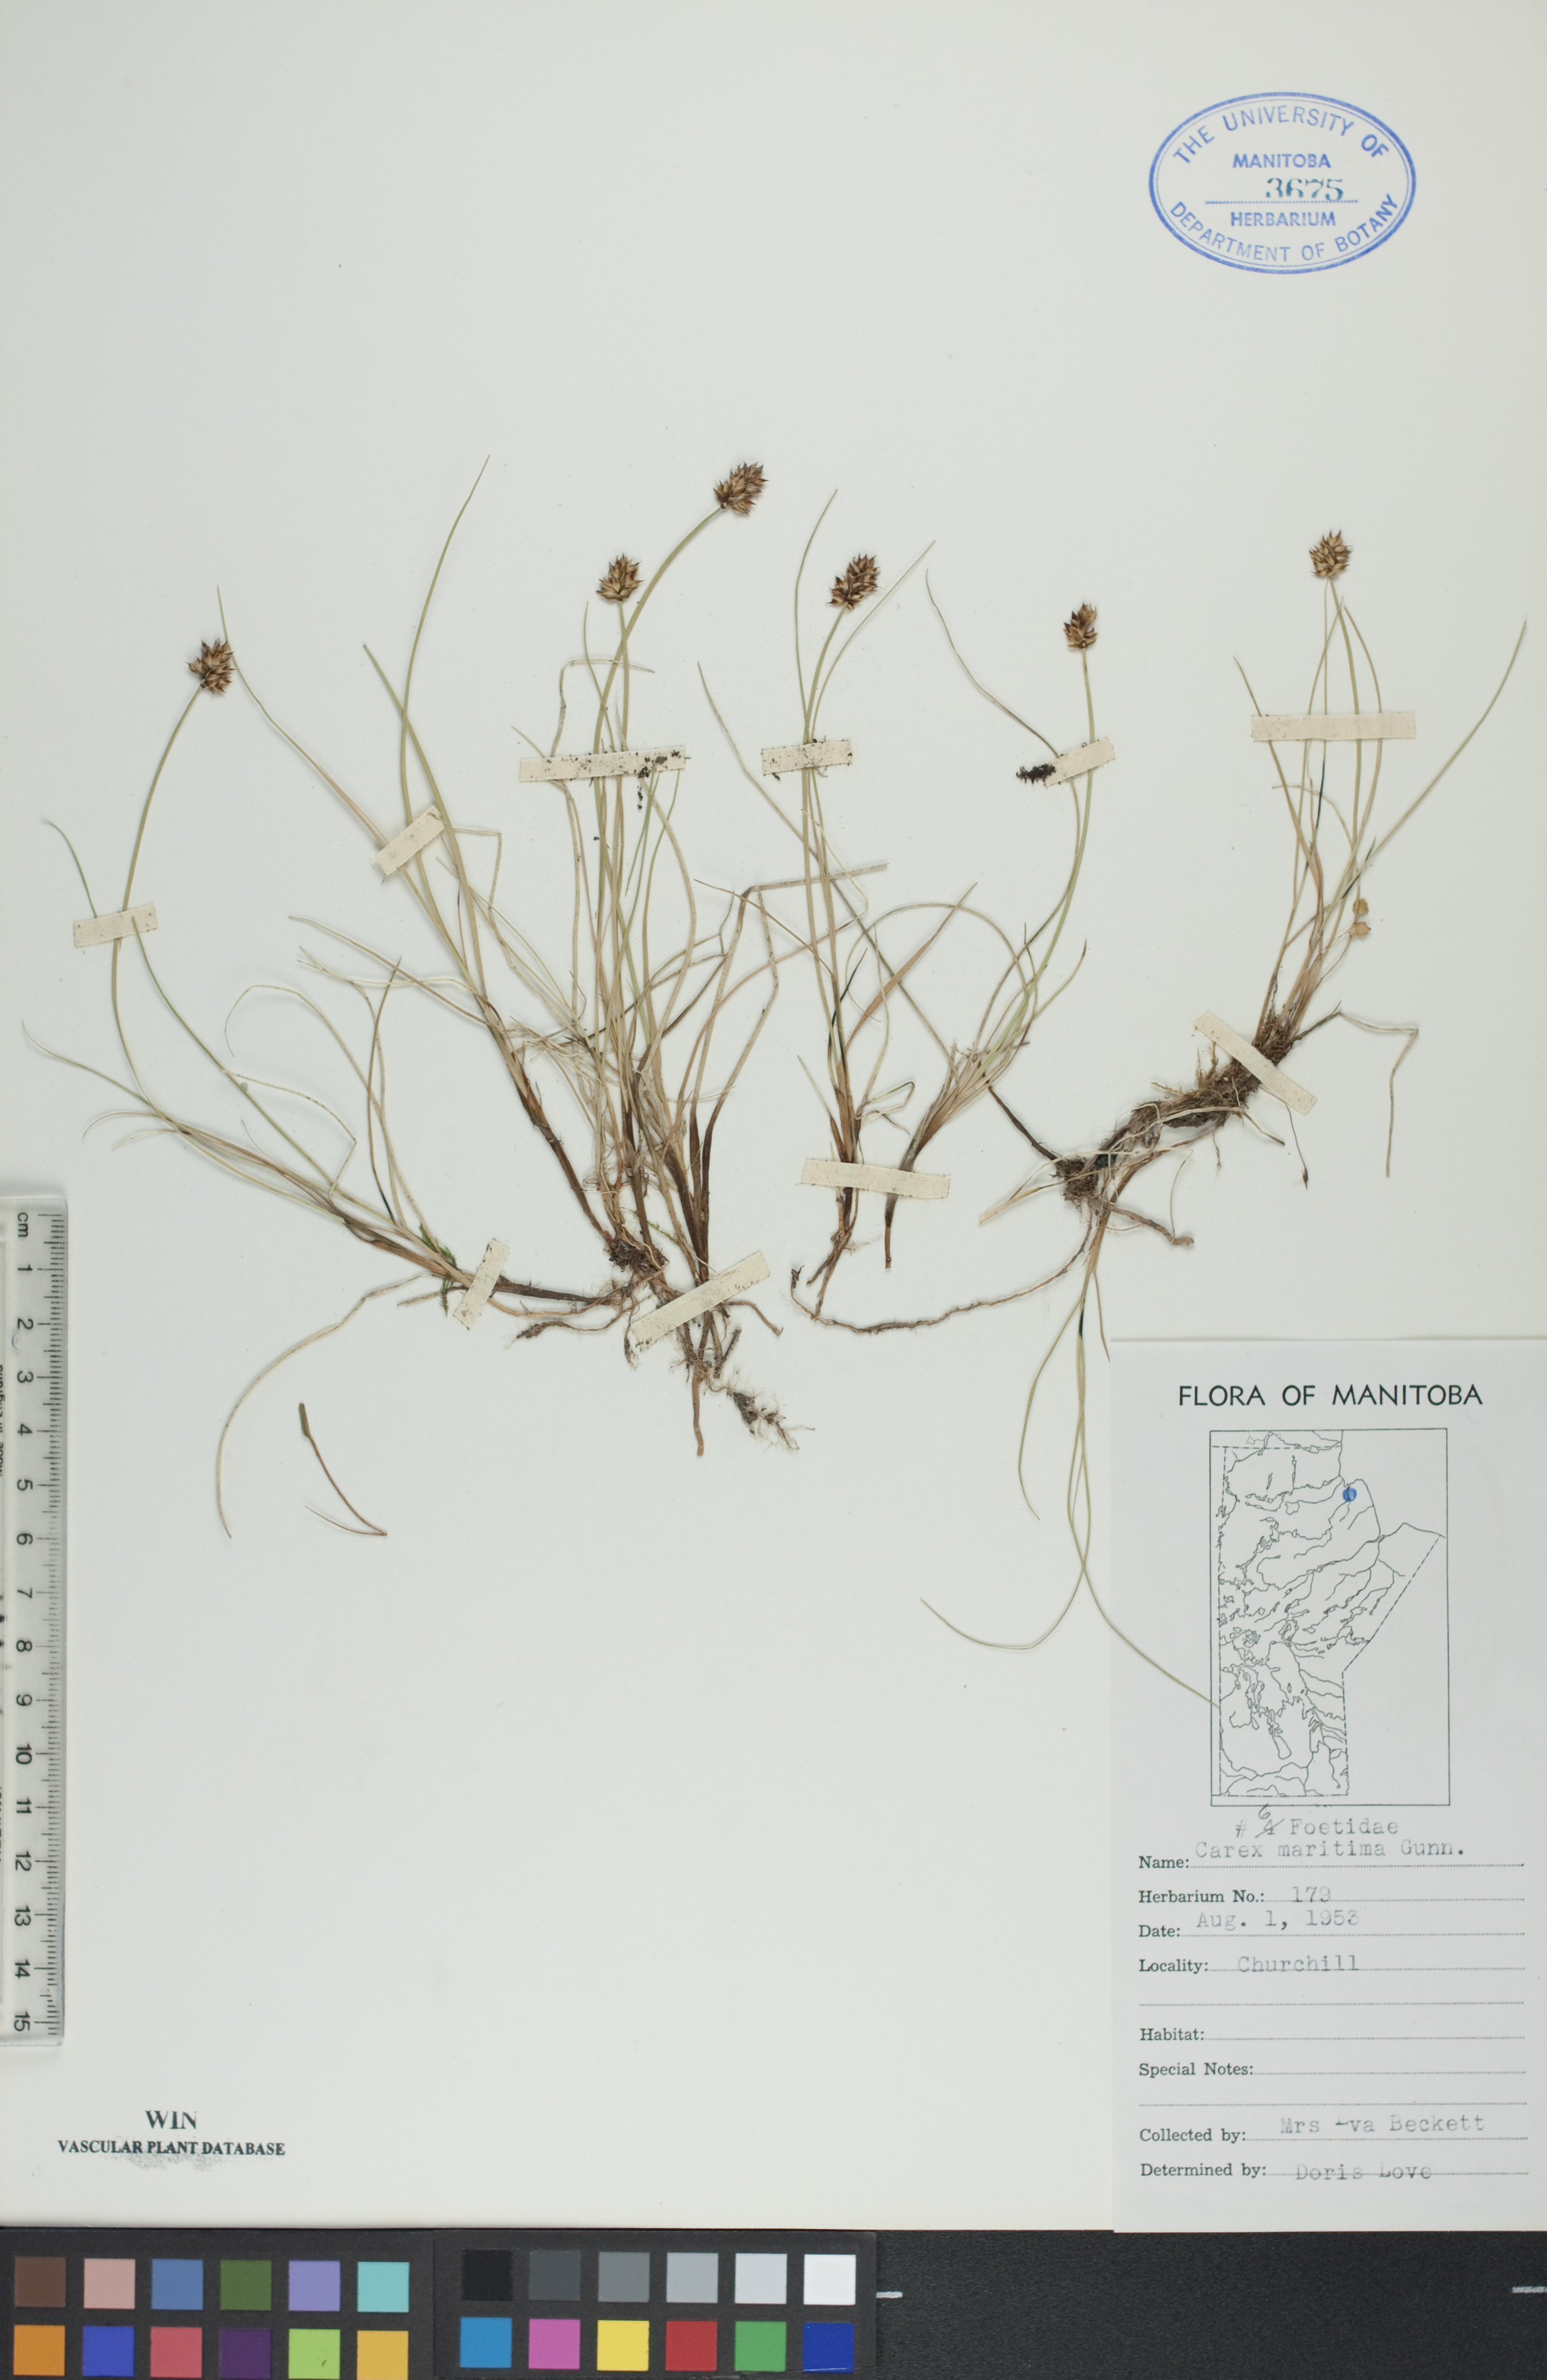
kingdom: Plantae
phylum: Tracheophyta
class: Liliopsida
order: Poales
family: Cyperaceae
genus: Carex
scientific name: Carex maritima
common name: Curved sedge
